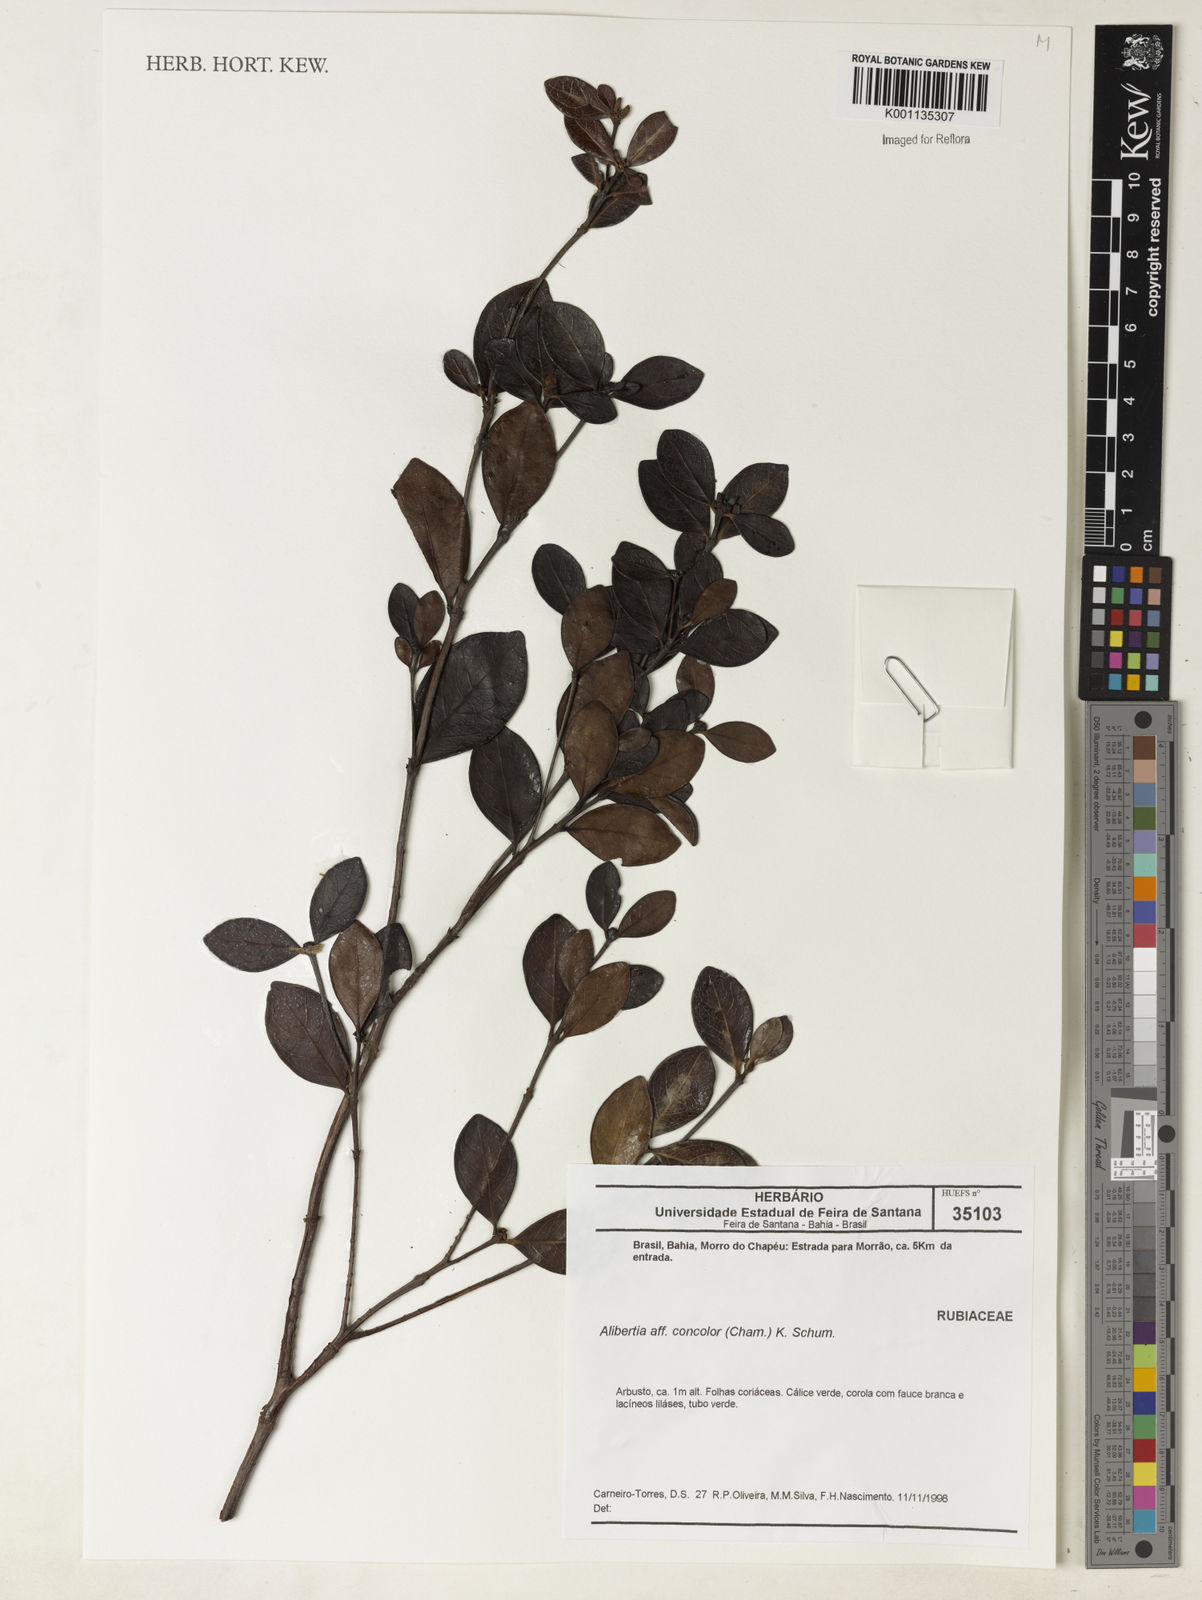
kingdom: Plantae
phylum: Tracheophyta
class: Magnoliopsida
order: Gentianales
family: Rubiaceae
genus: Cordiera
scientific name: Cordiera concolor
